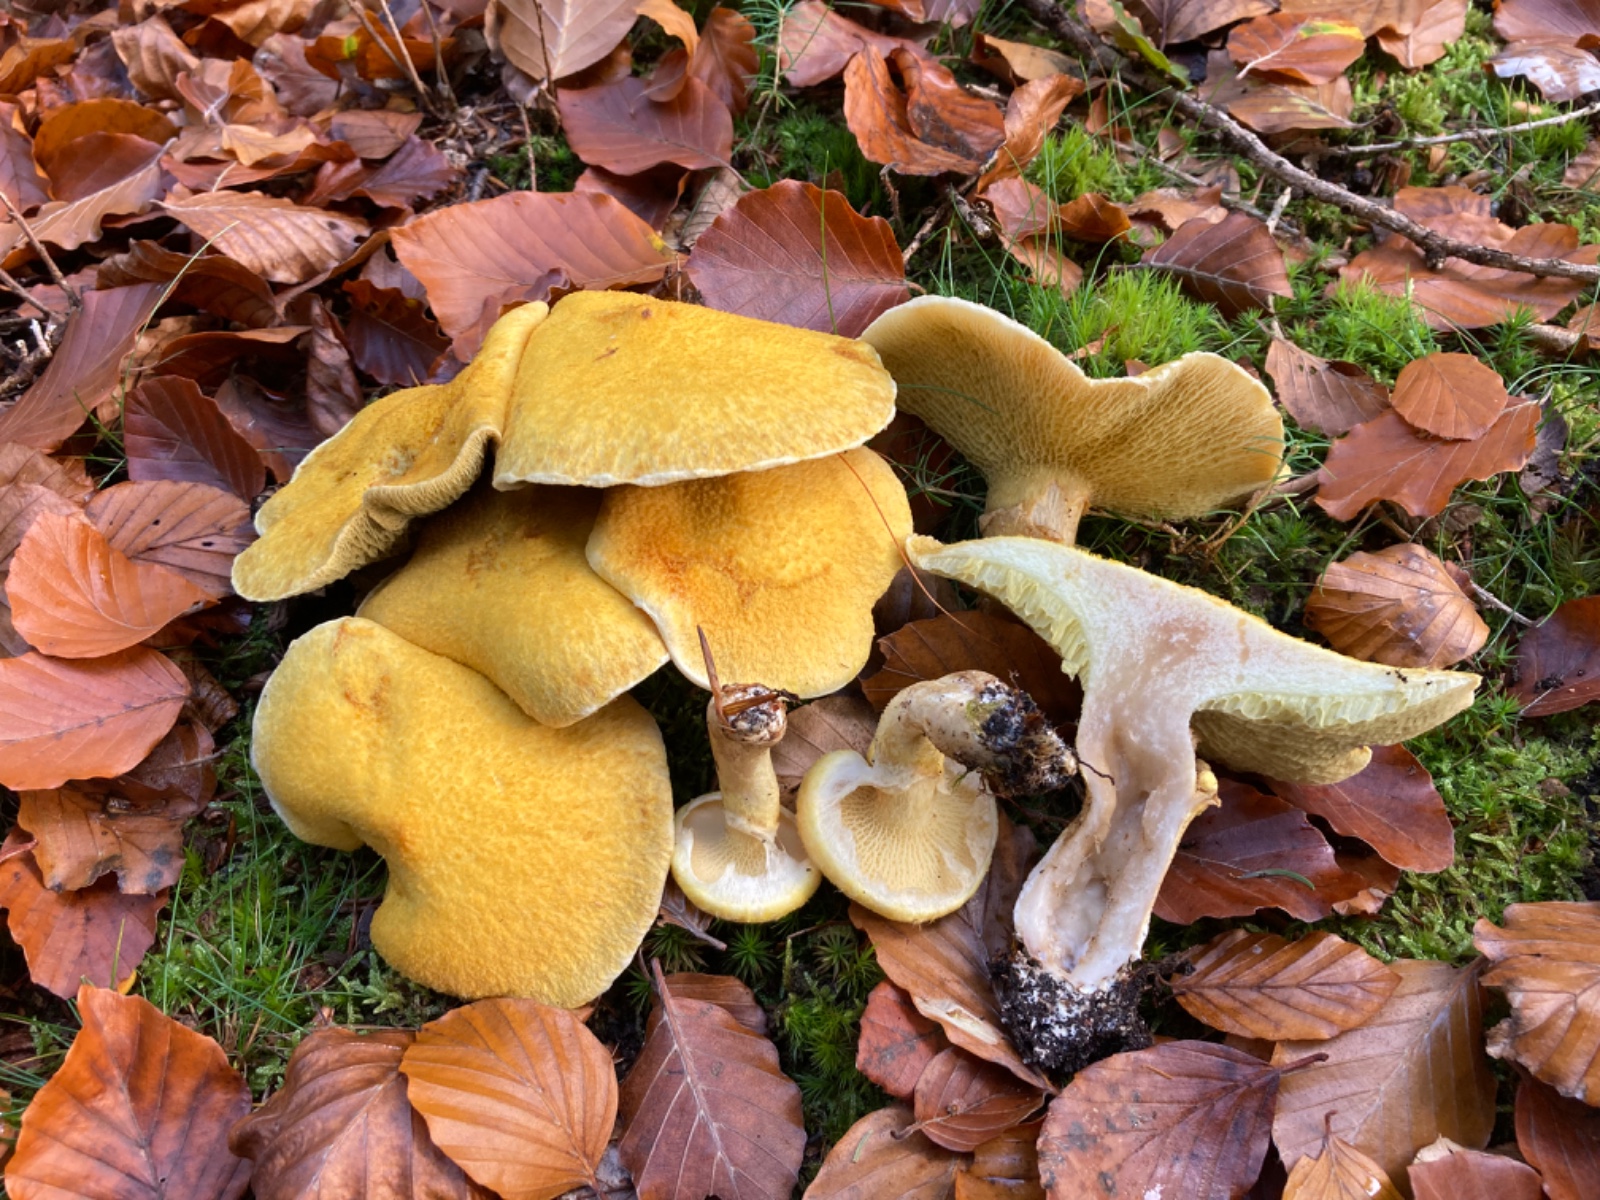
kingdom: Fungi
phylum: Basidiomycota
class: Agaricomycetes
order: Boletales
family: Suillaceae
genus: Suillus
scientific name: Suillus cavipes
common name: hulstokket slimrørhat, gul form
